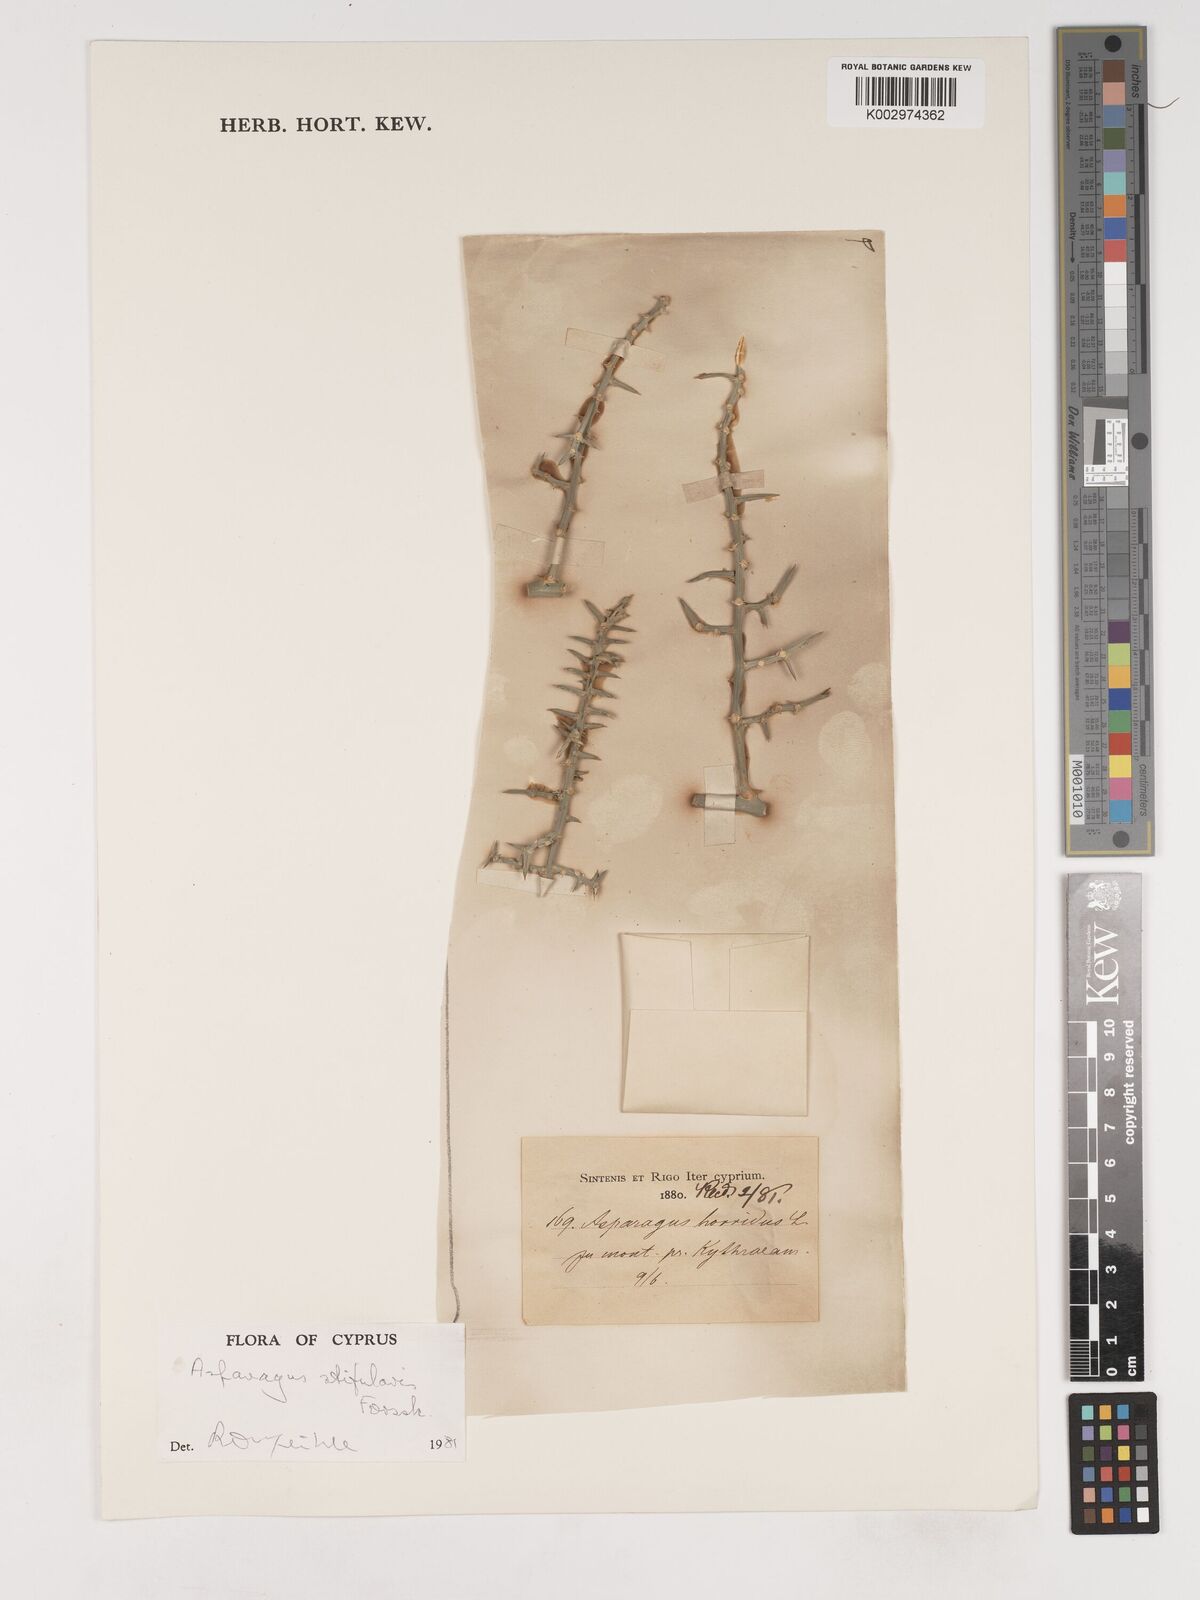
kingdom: Plantae
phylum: Tracheophyta
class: Liliopsida
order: Asparagales
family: Asparagaceae
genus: Asparagus
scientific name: Asparagus horridus
